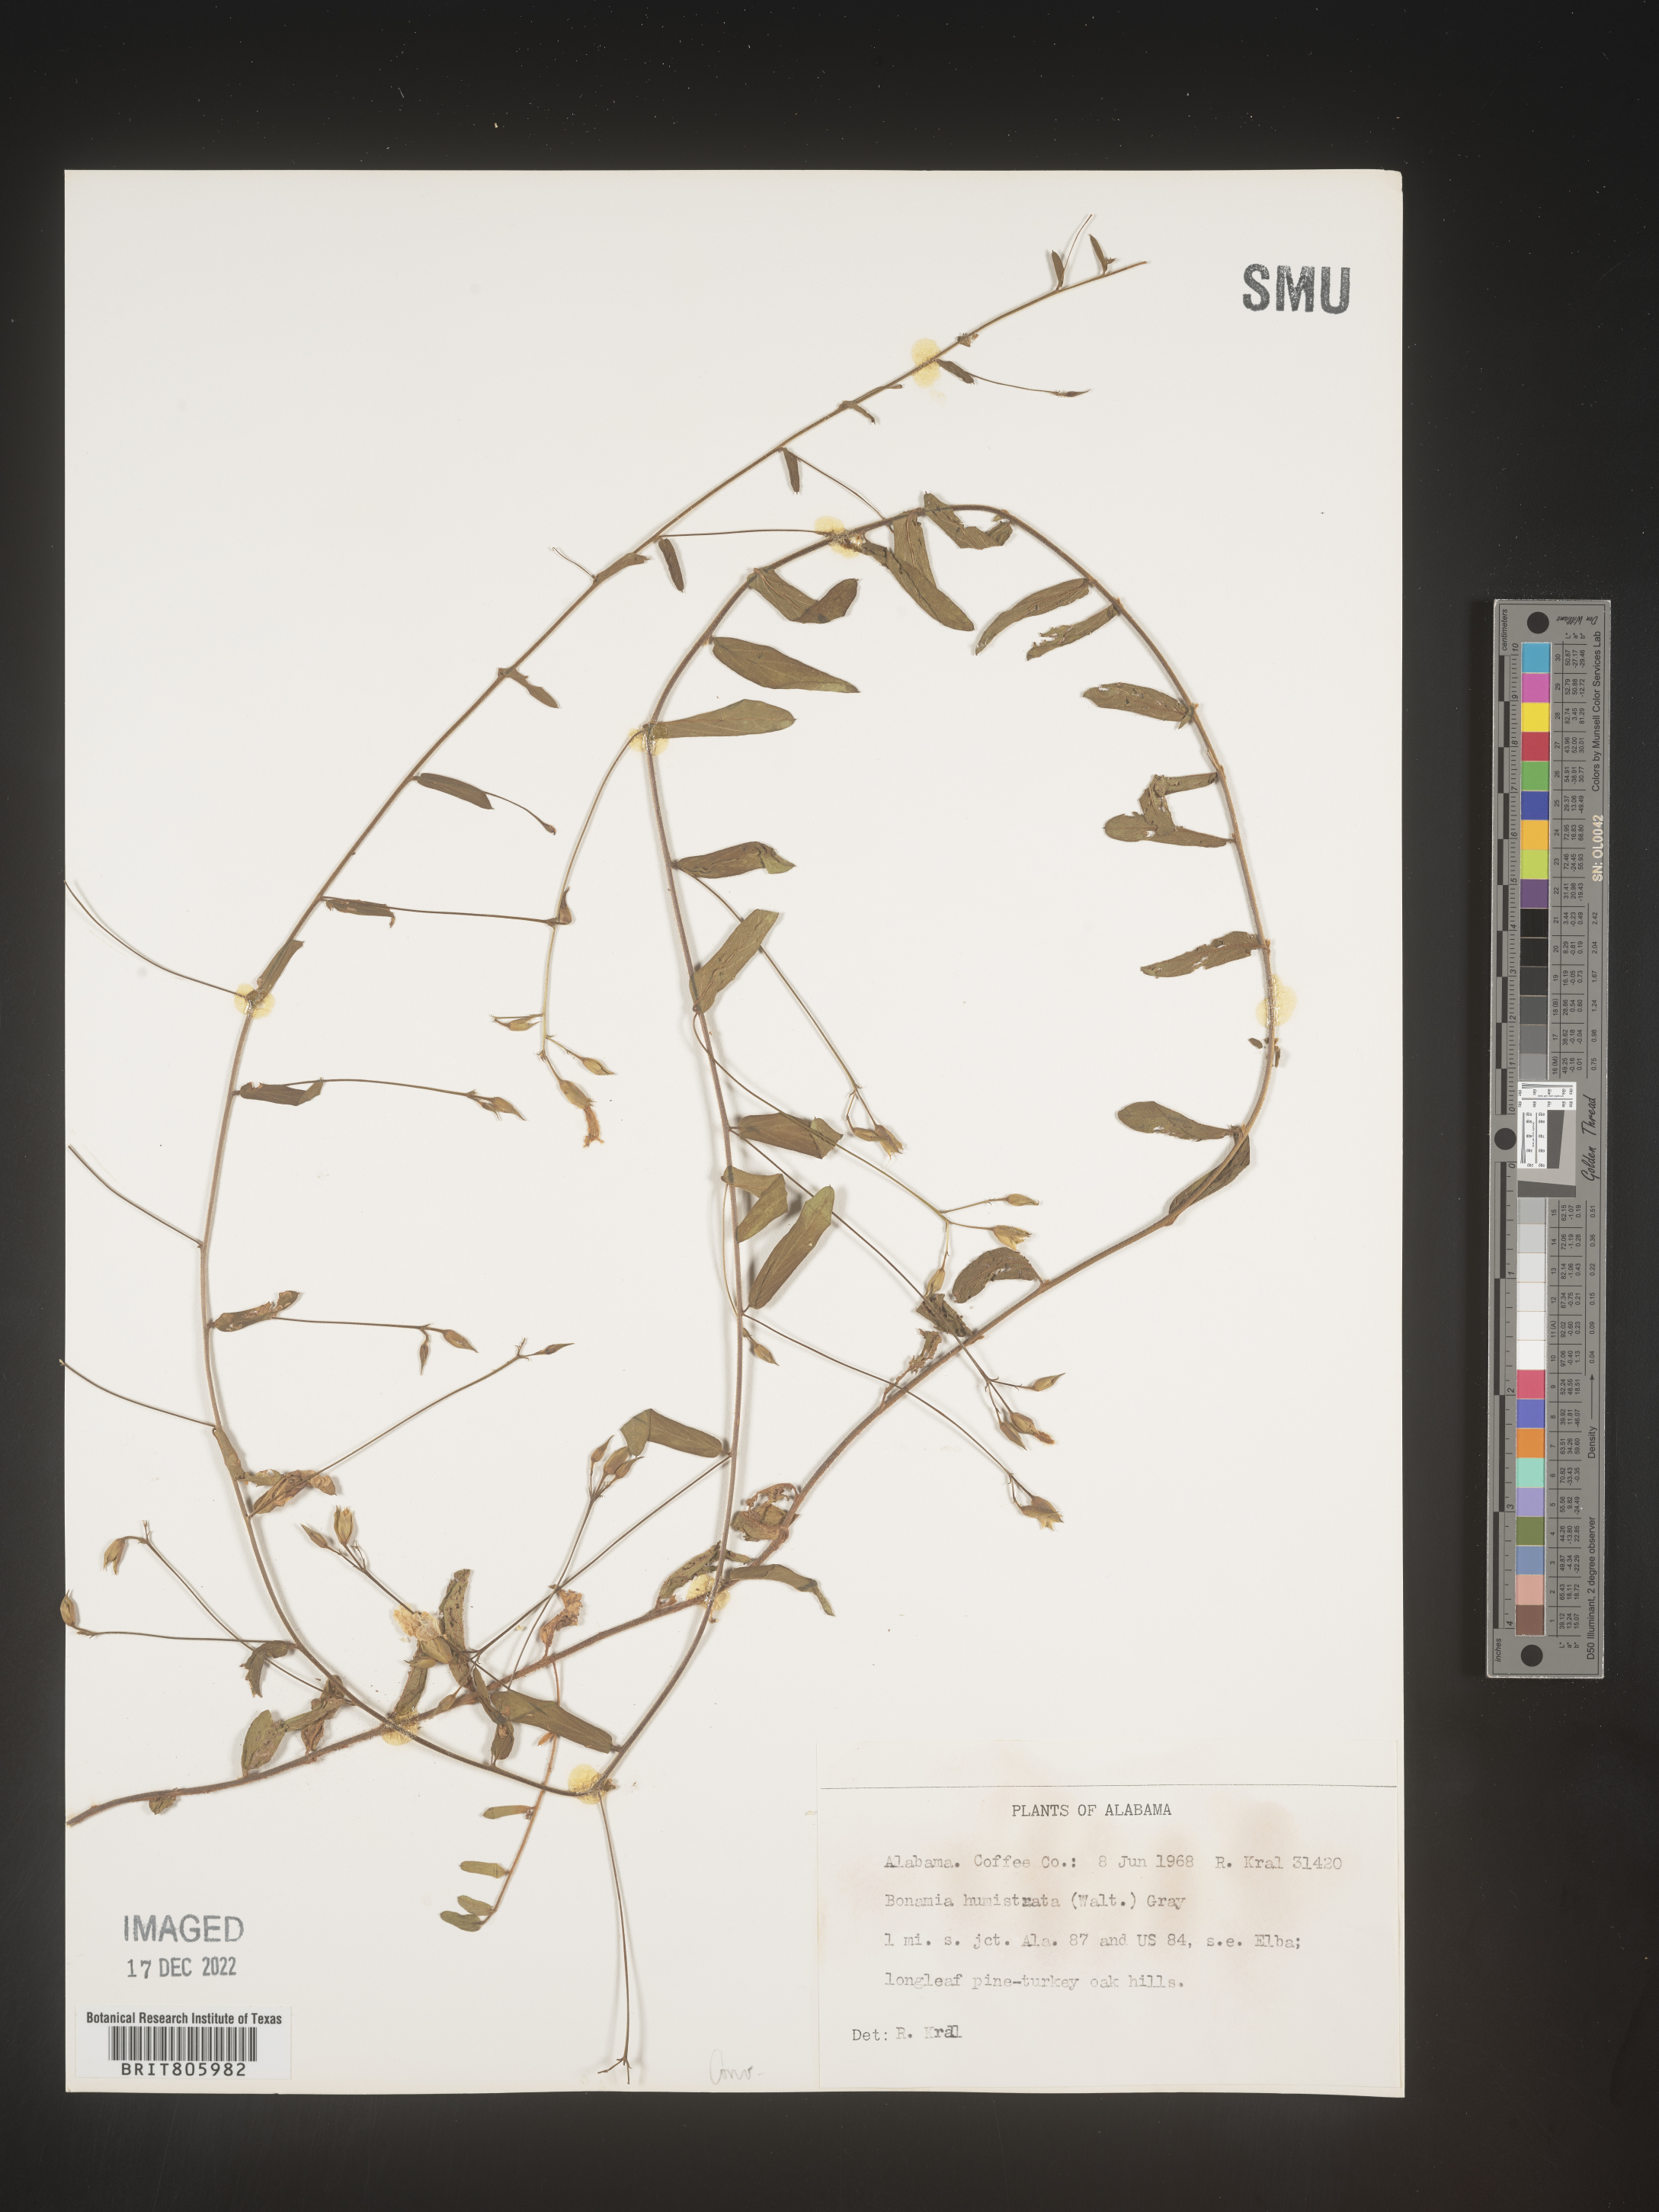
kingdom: Plantae
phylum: Tracheophyta
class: Magnoliopsida
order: Solanales
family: Convolvulaceae
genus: Stylisma
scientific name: Stylisma humistrata
